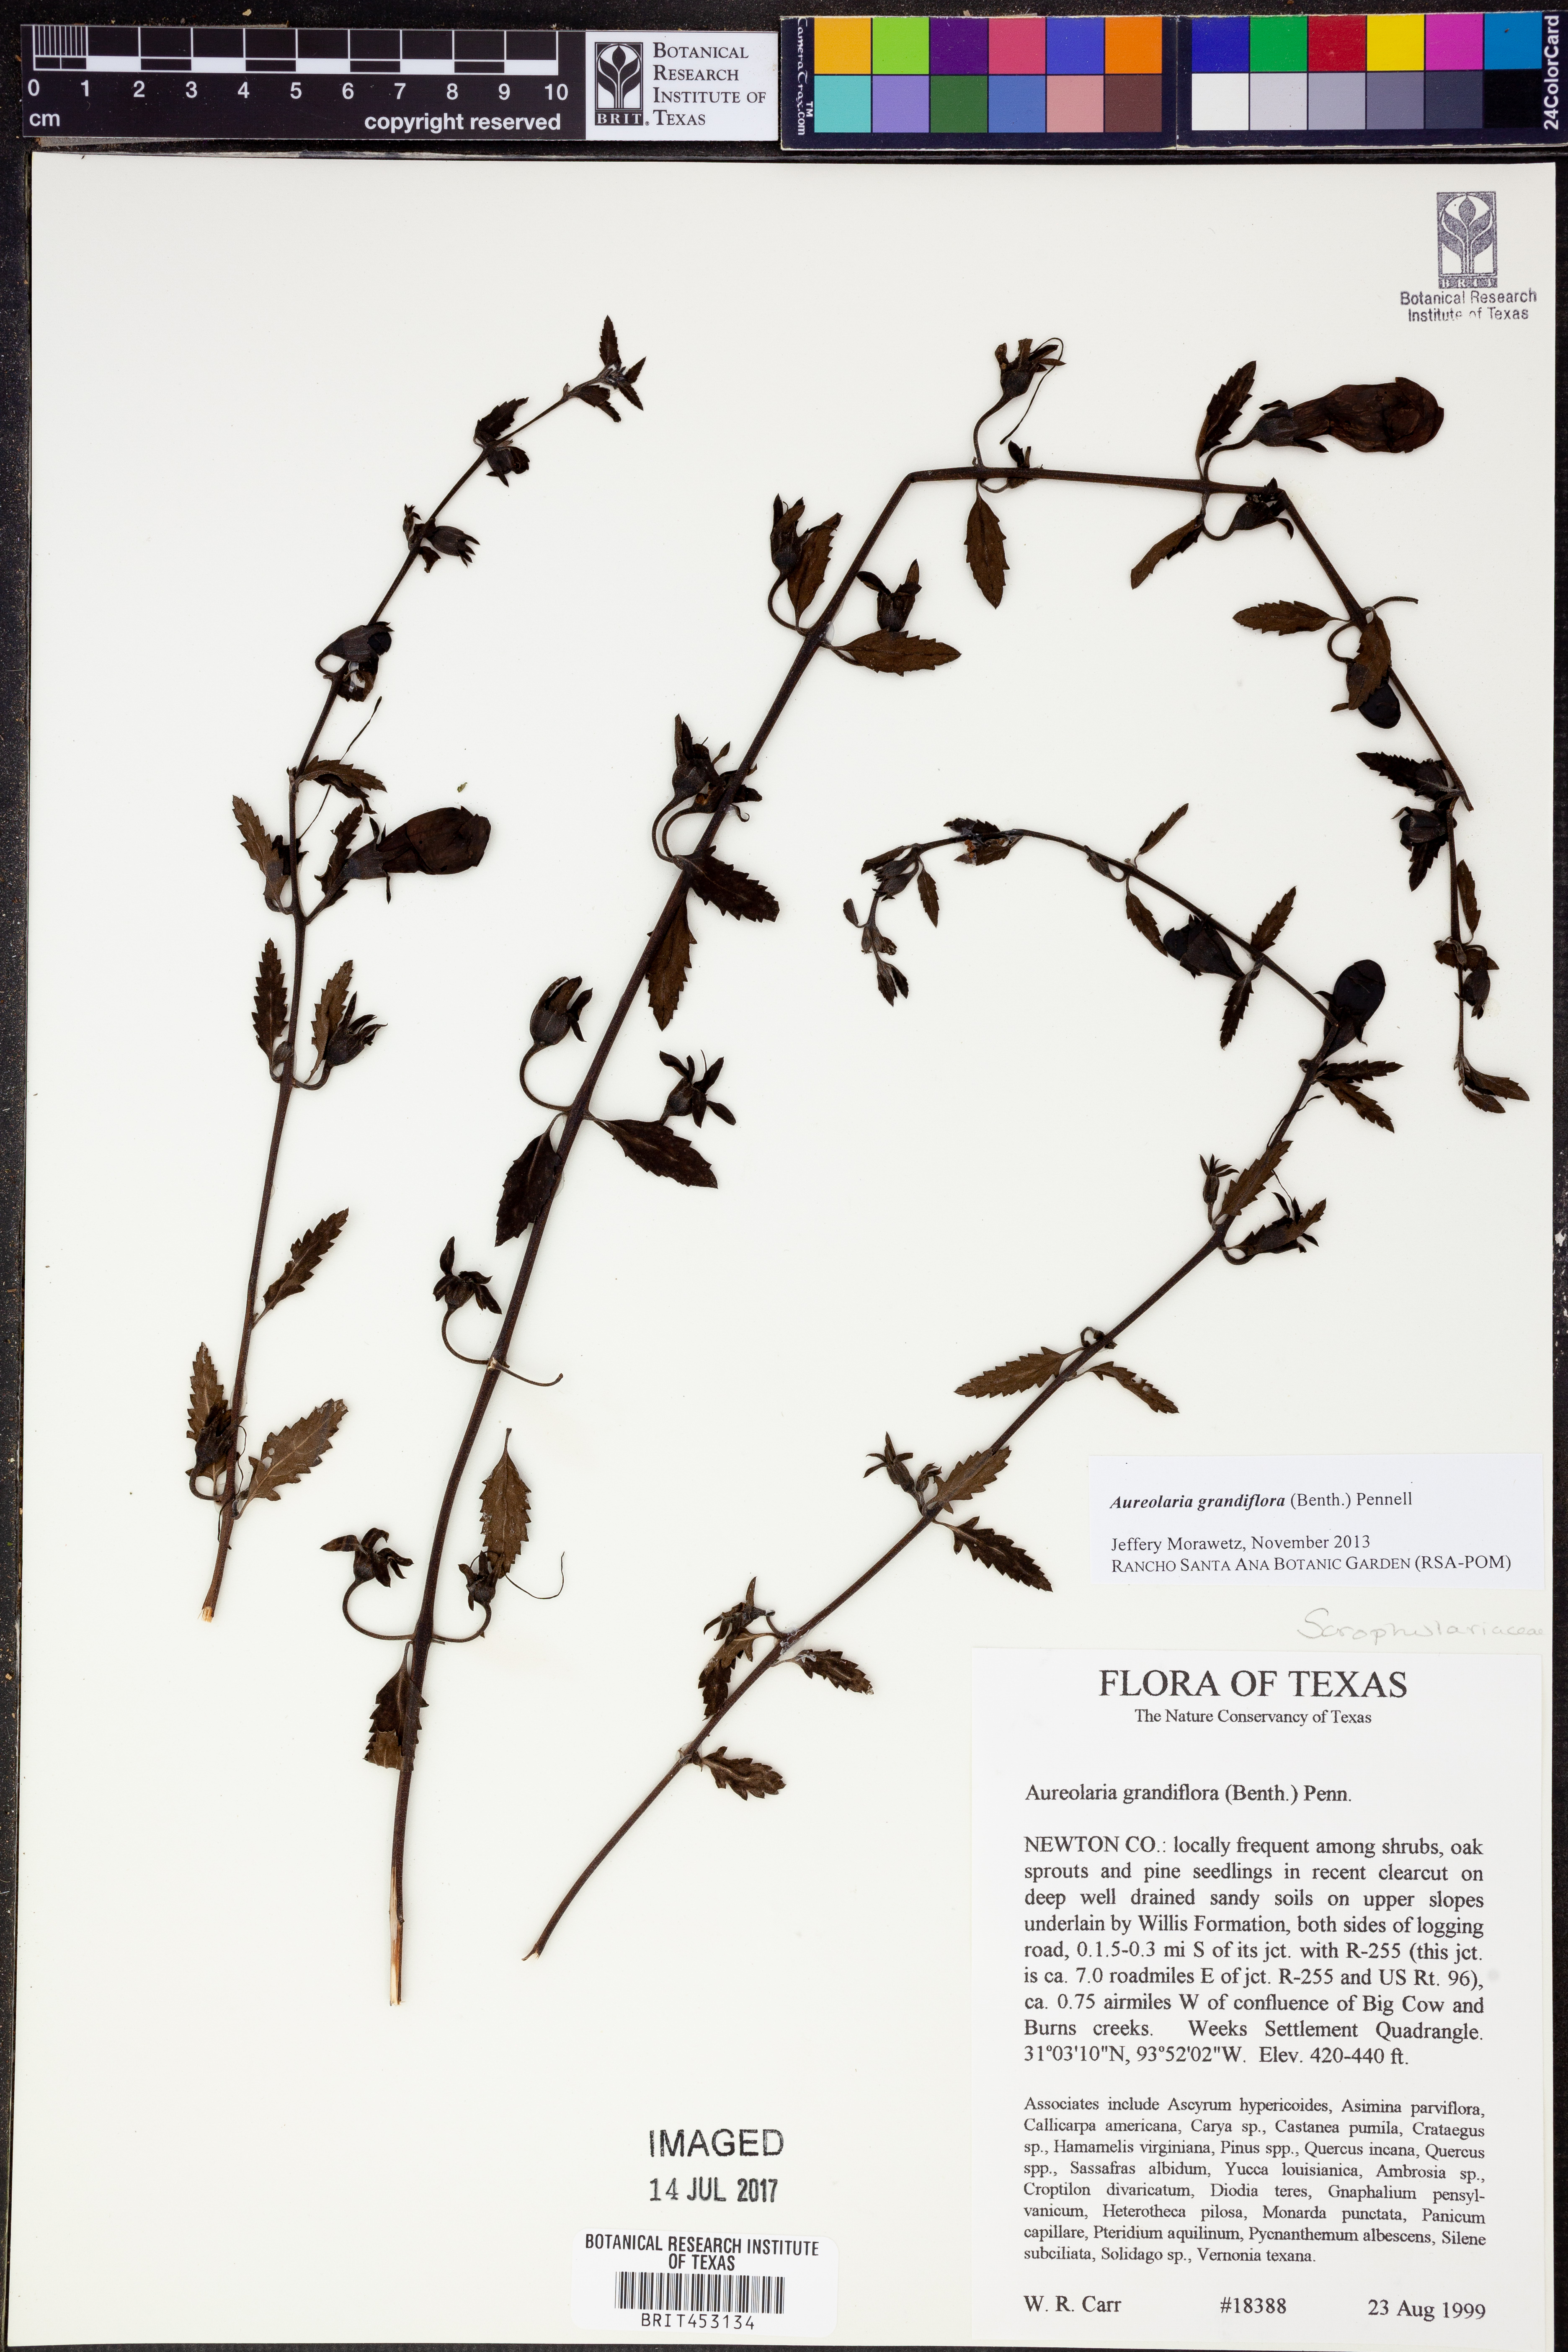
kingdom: Plantae
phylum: Tracheophyta
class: Magnoliopsida
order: Lamiales
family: Orobanchaceae
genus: Aureolaria
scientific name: Aureolaria grandiflora
